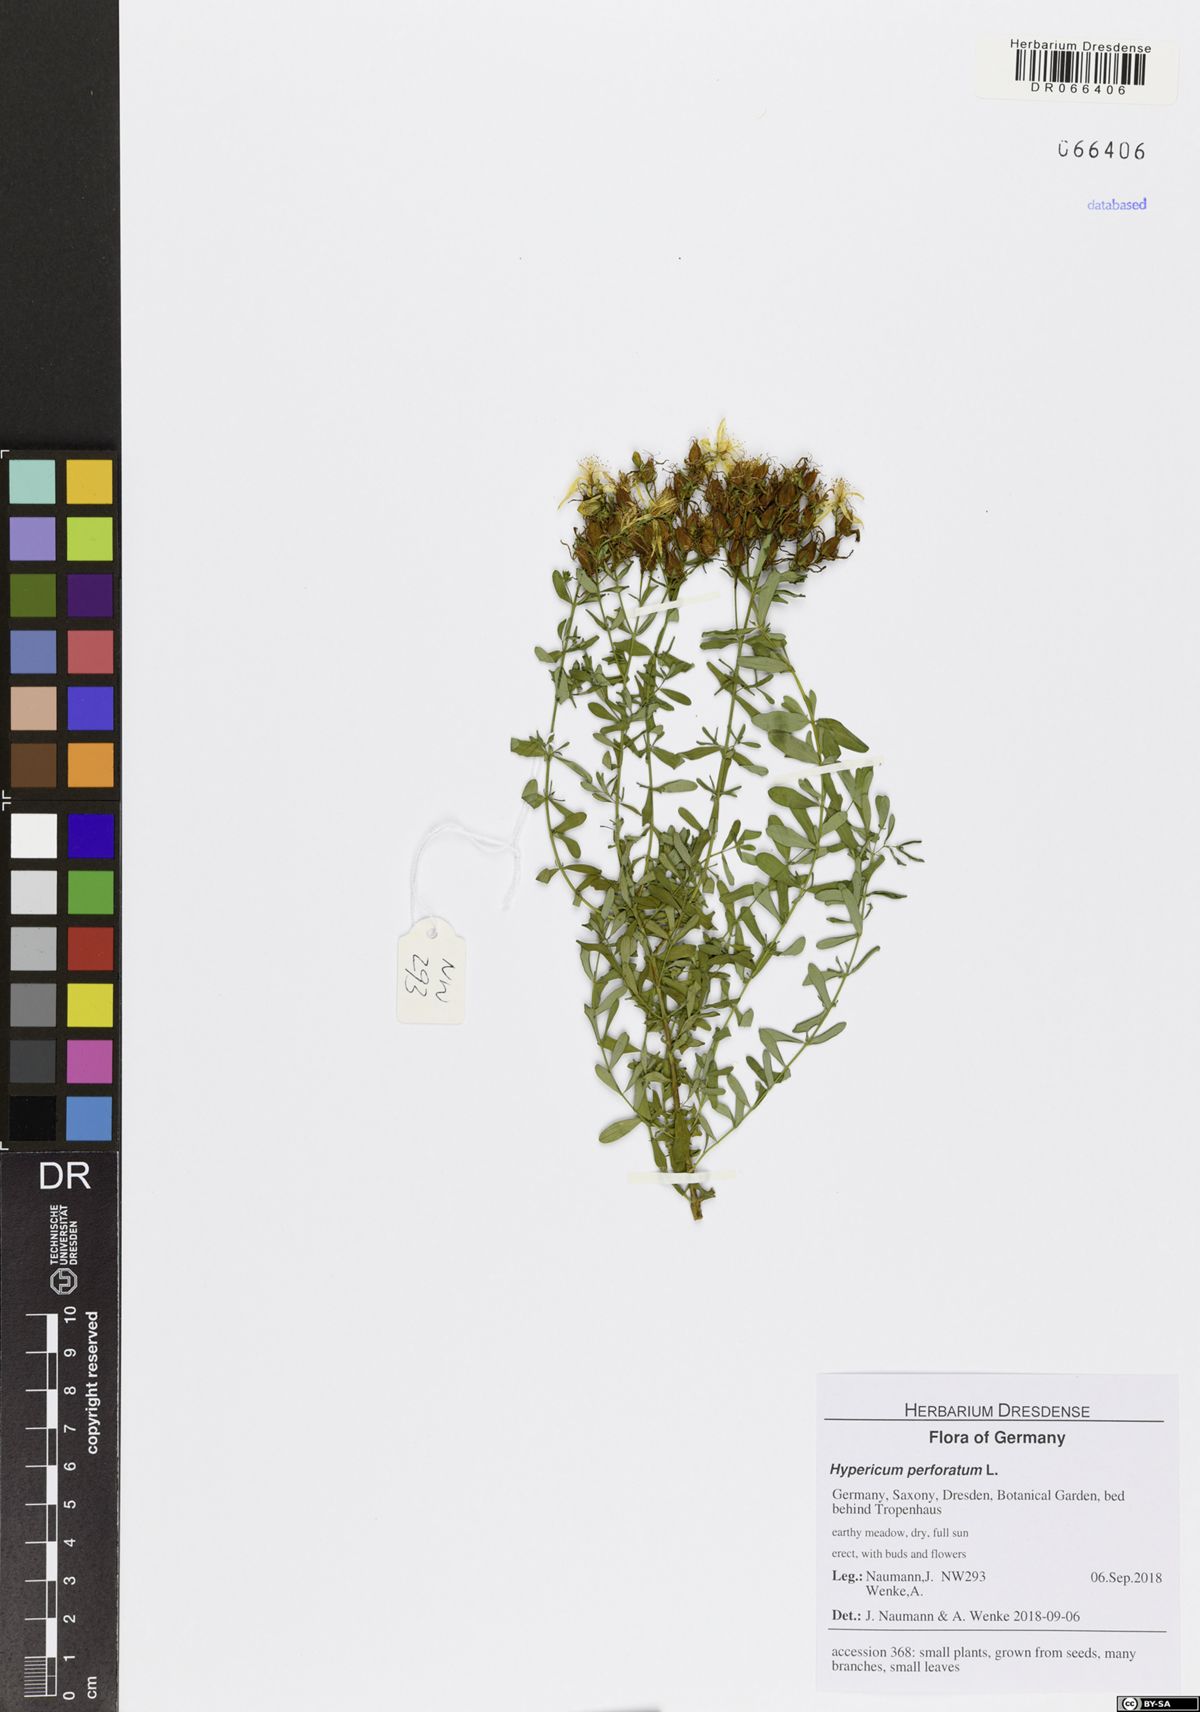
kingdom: Plantae
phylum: Tracheophyta
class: Magnoliopsida
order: Malpighiales
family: Hypericaceae
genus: Hypericum
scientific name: Hypericum perforatum
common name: Common st. johnswort
